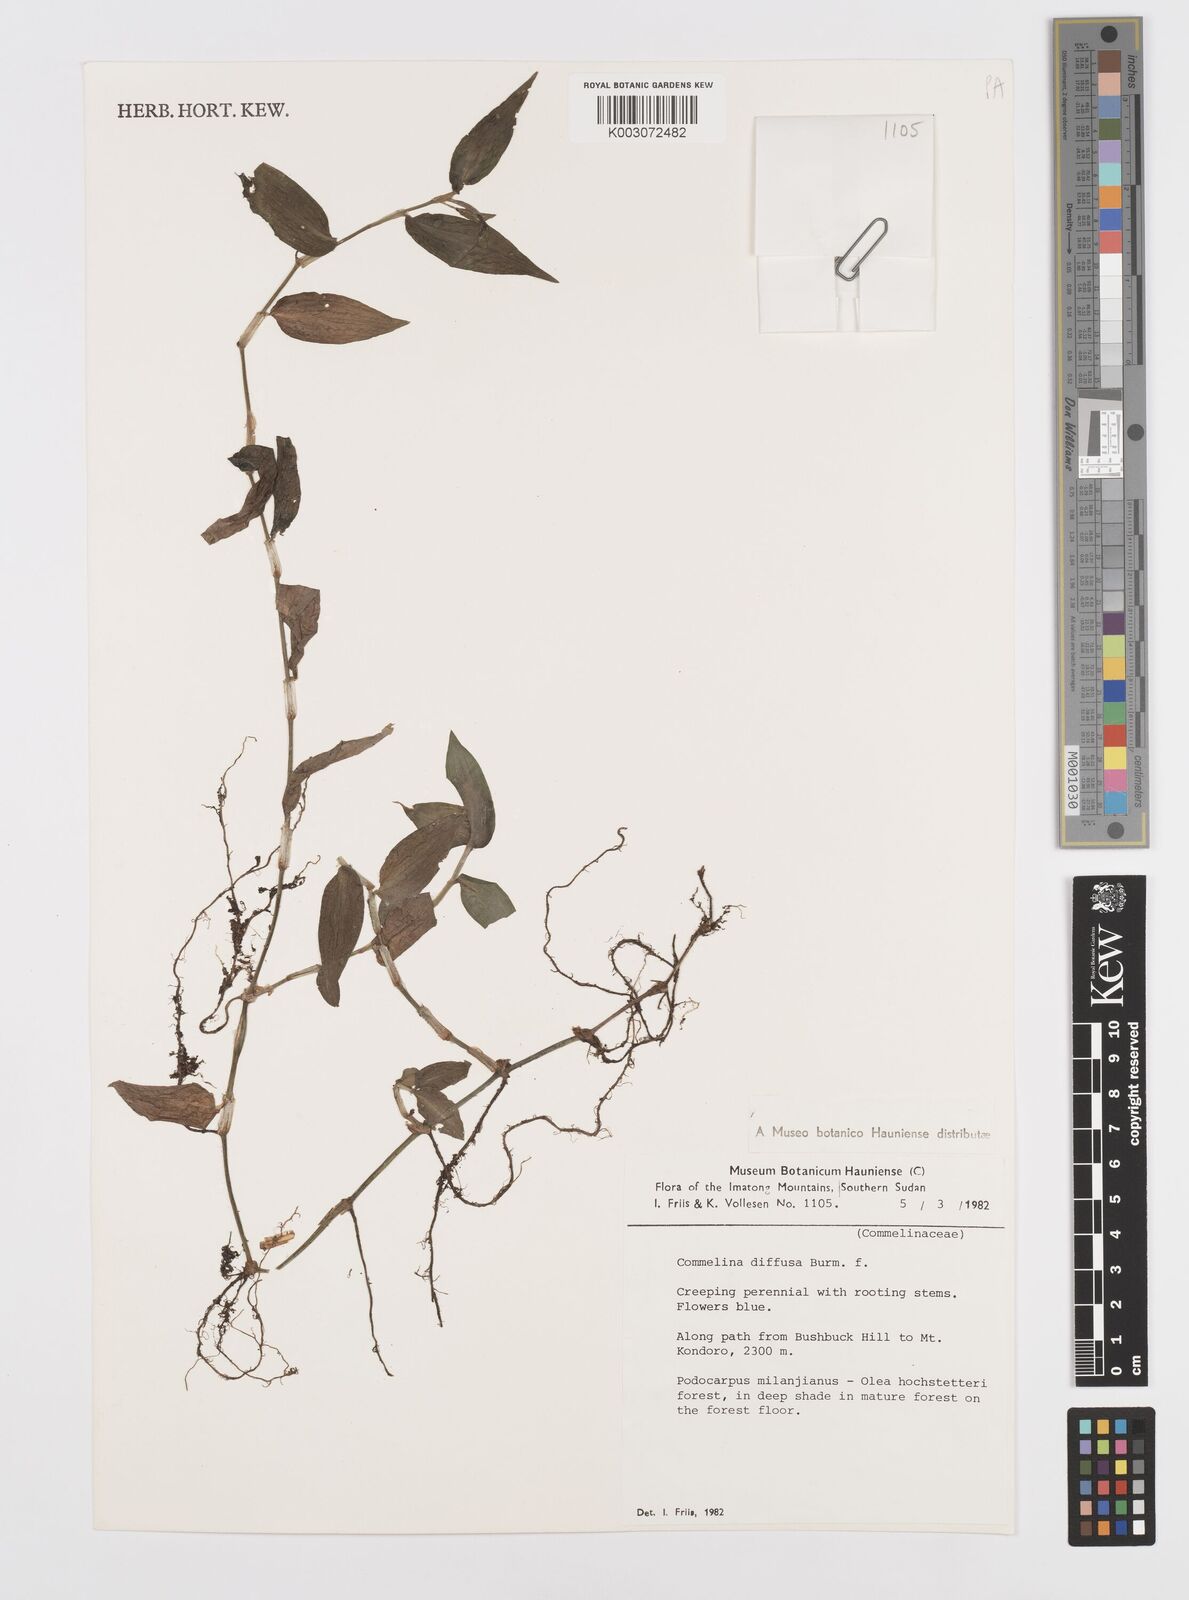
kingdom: Plantae
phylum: Tracheophyta
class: Liliopsida
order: Commelinales
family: Commelinaceae
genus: Commelina
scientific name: Commelina diffusa
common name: Climbing dayflower
